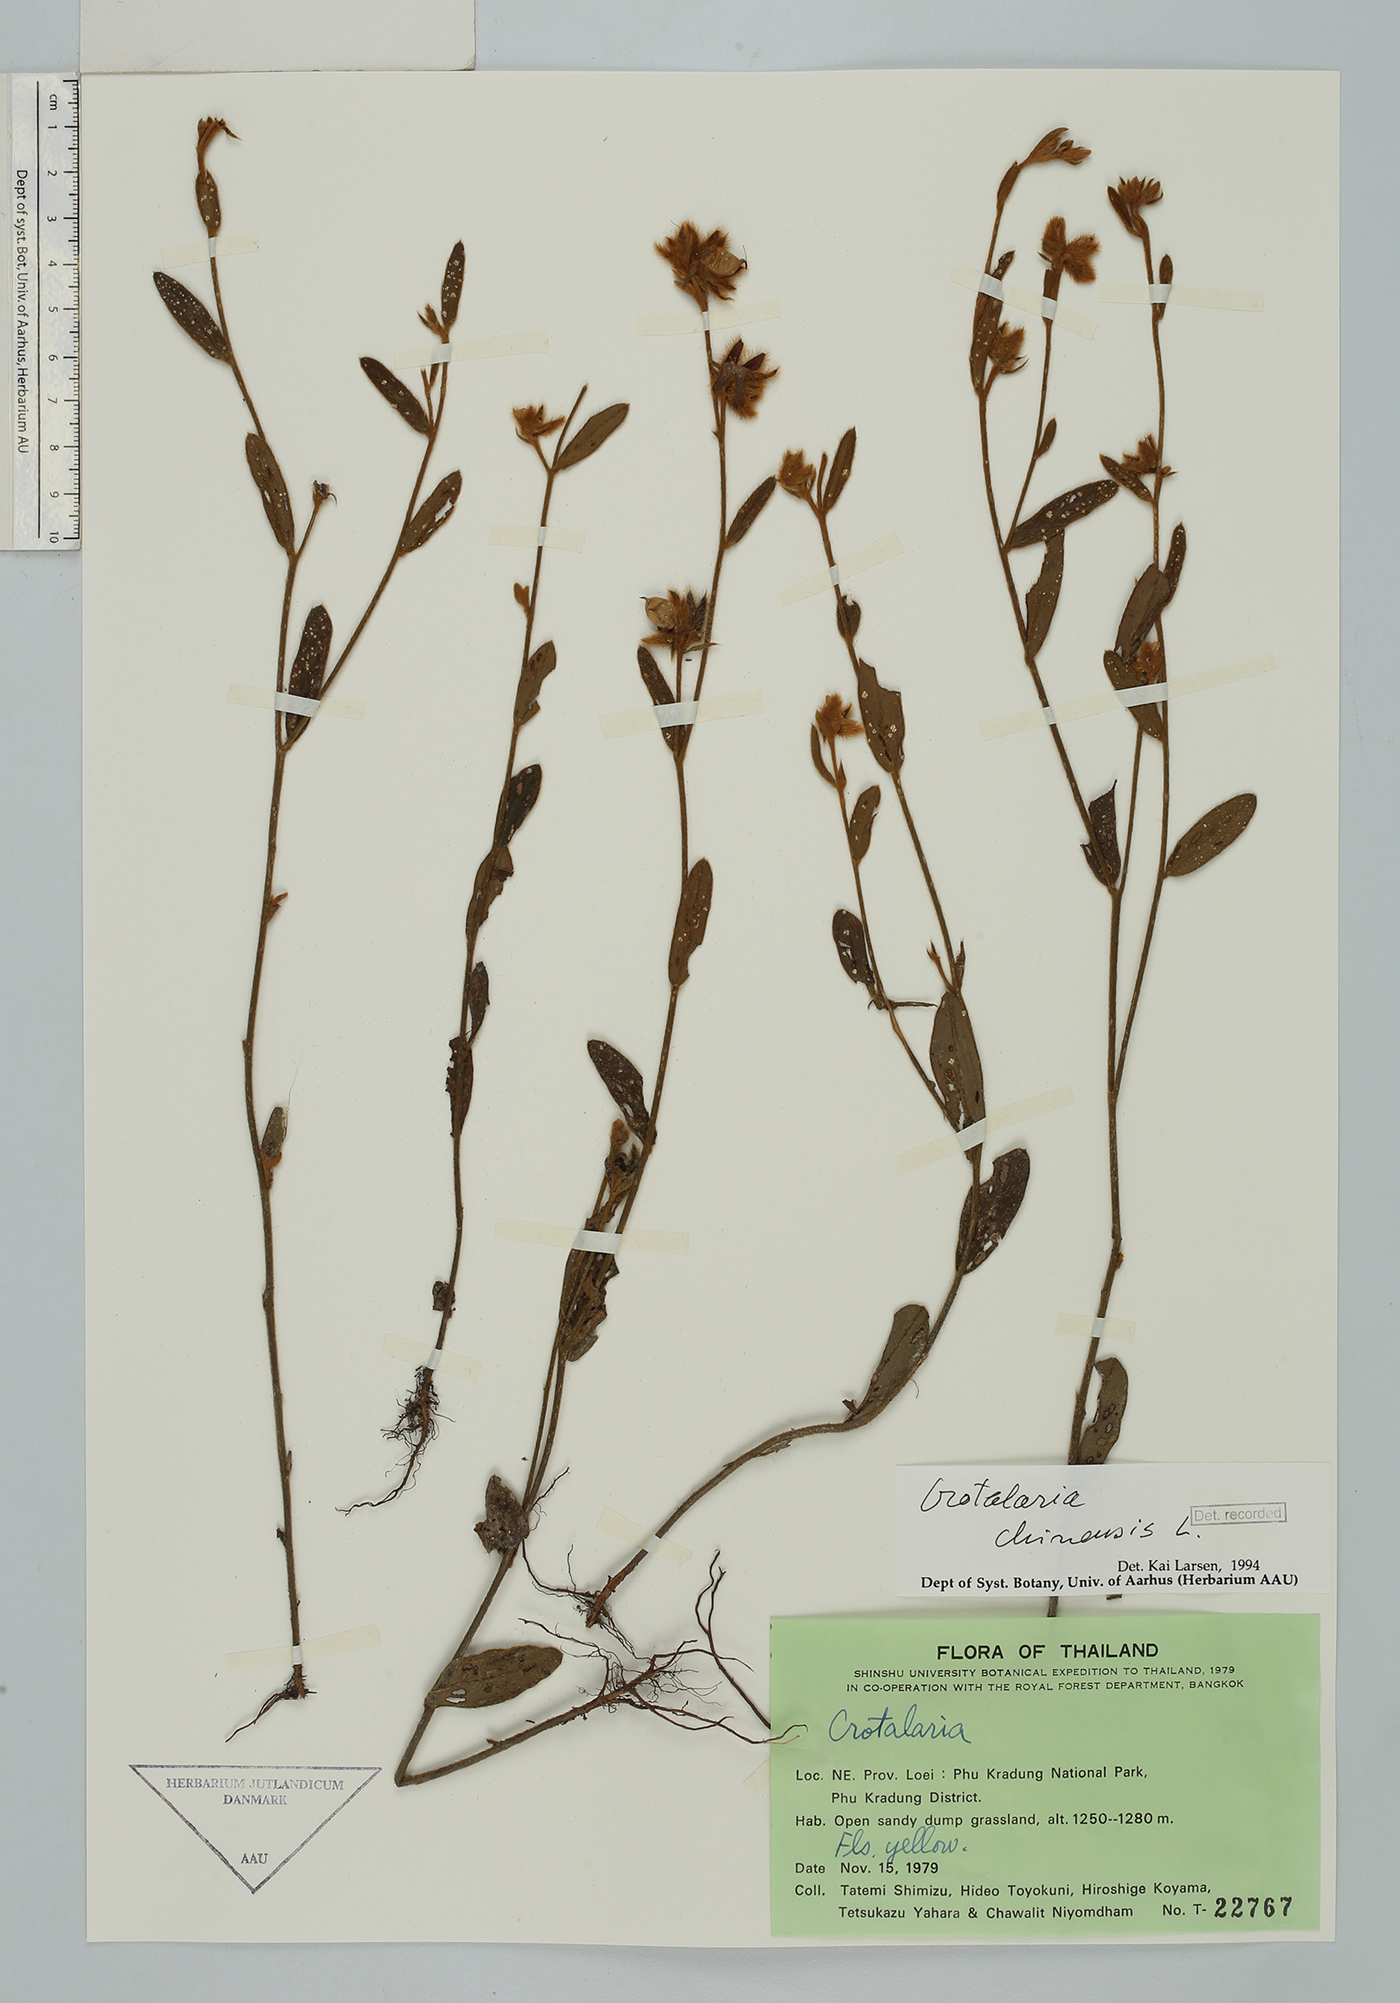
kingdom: Plantae
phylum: Tracheophyta
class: Magnoliopsida
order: Fabales
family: Fabaceae
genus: Crotalaria
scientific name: Crotalaria chinensis
